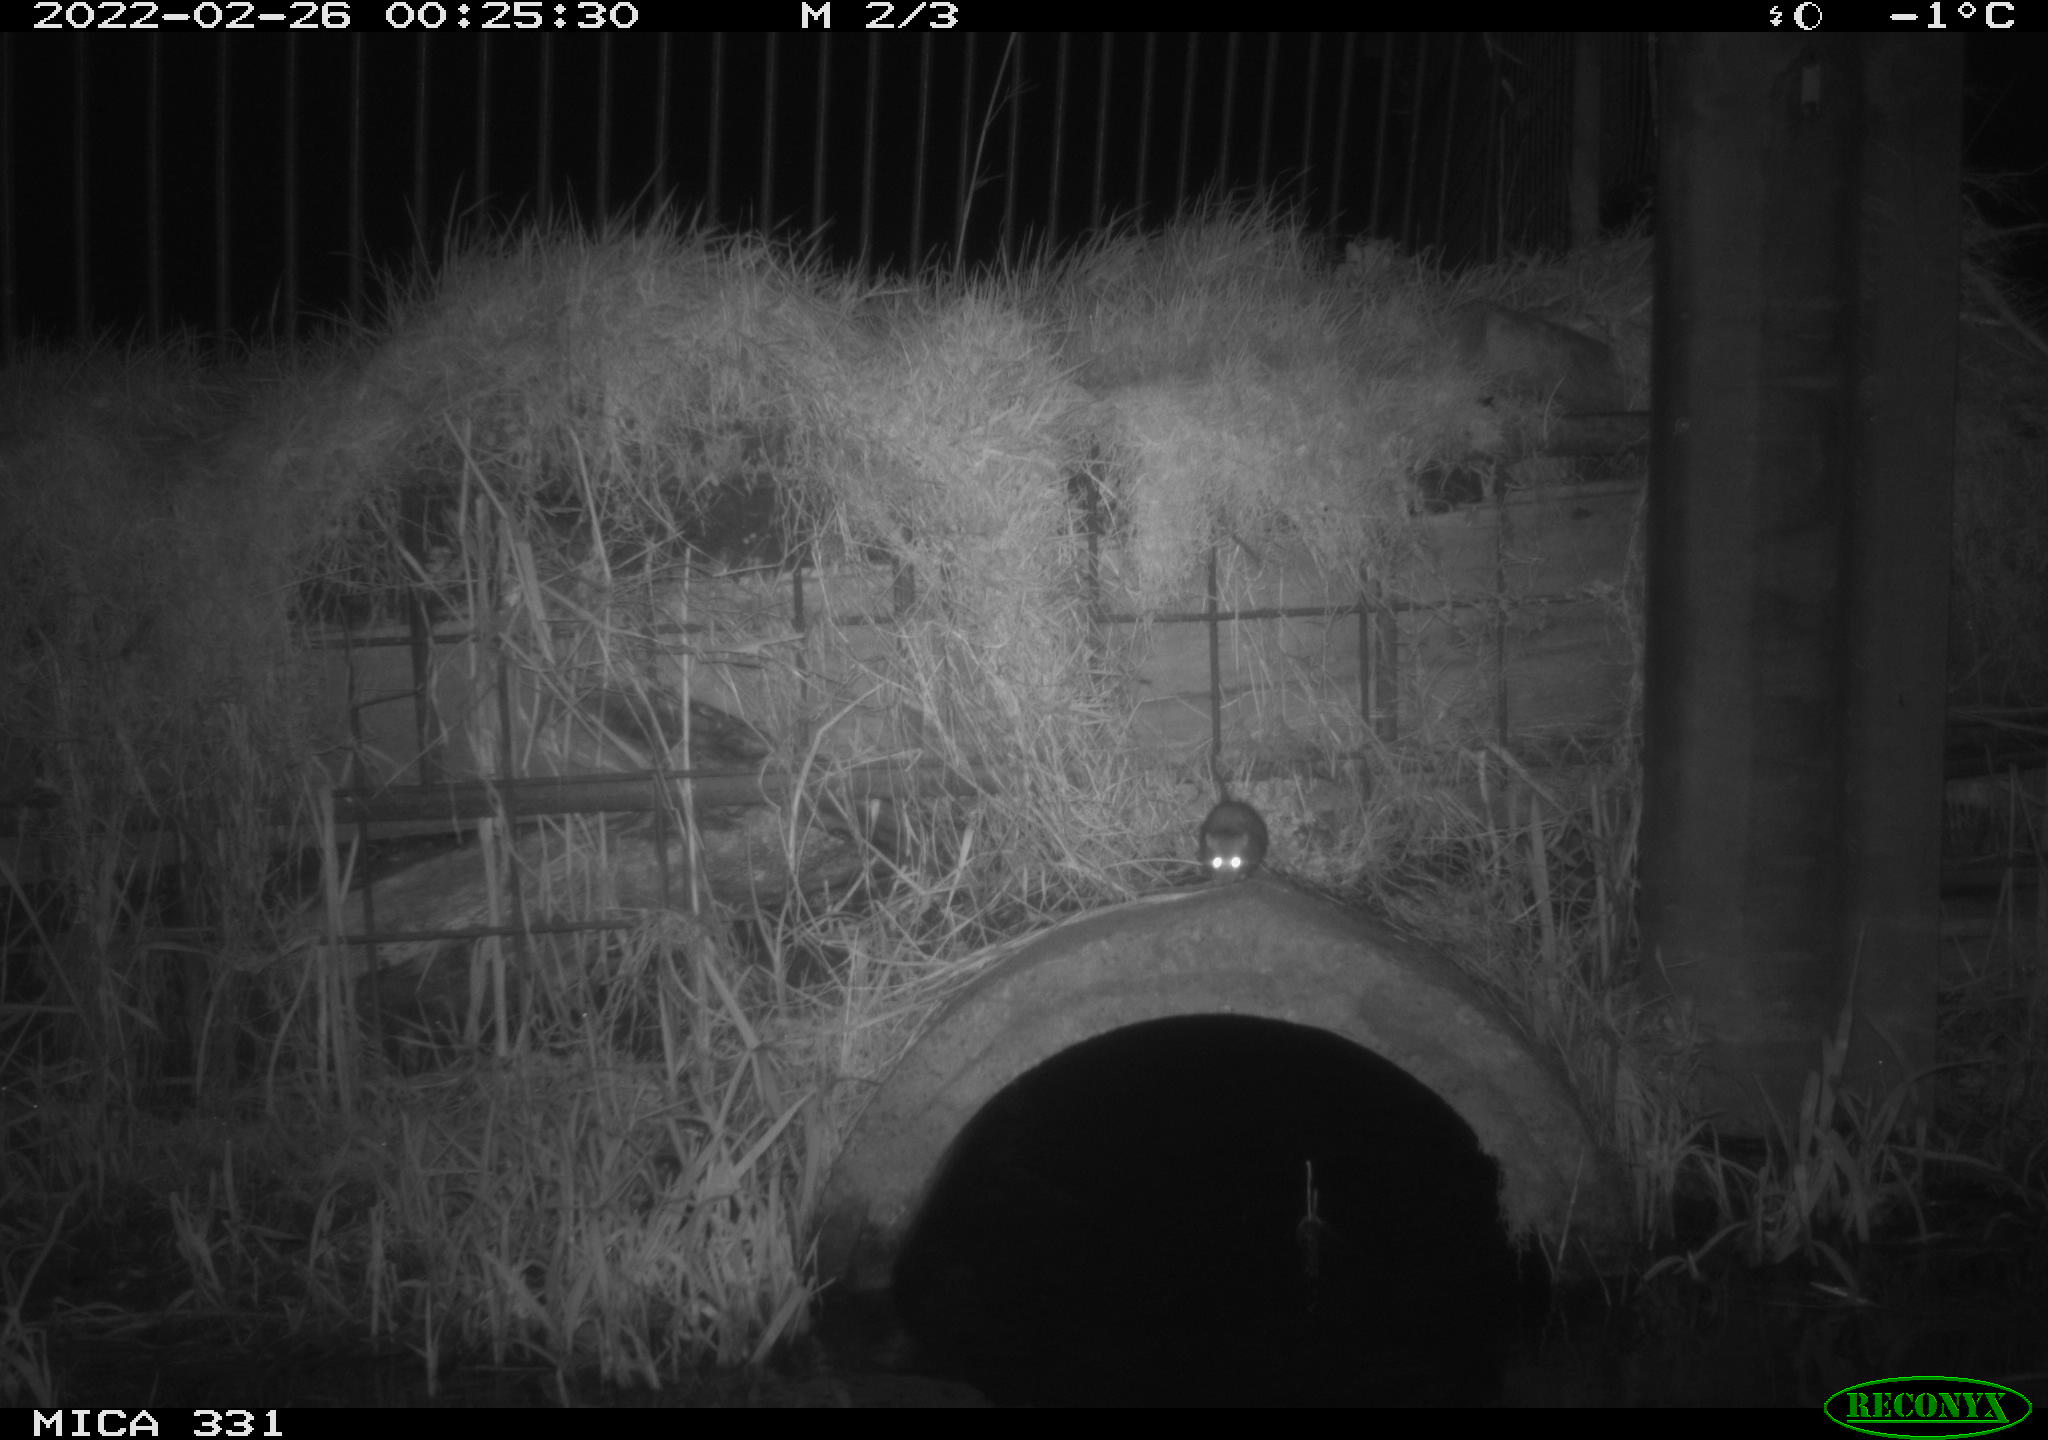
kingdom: Animalia
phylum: Chordata
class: Mammalia
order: Rodentia
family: Muridae
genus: Rattus
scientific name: Rattus norvegicus
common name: Brown rat
